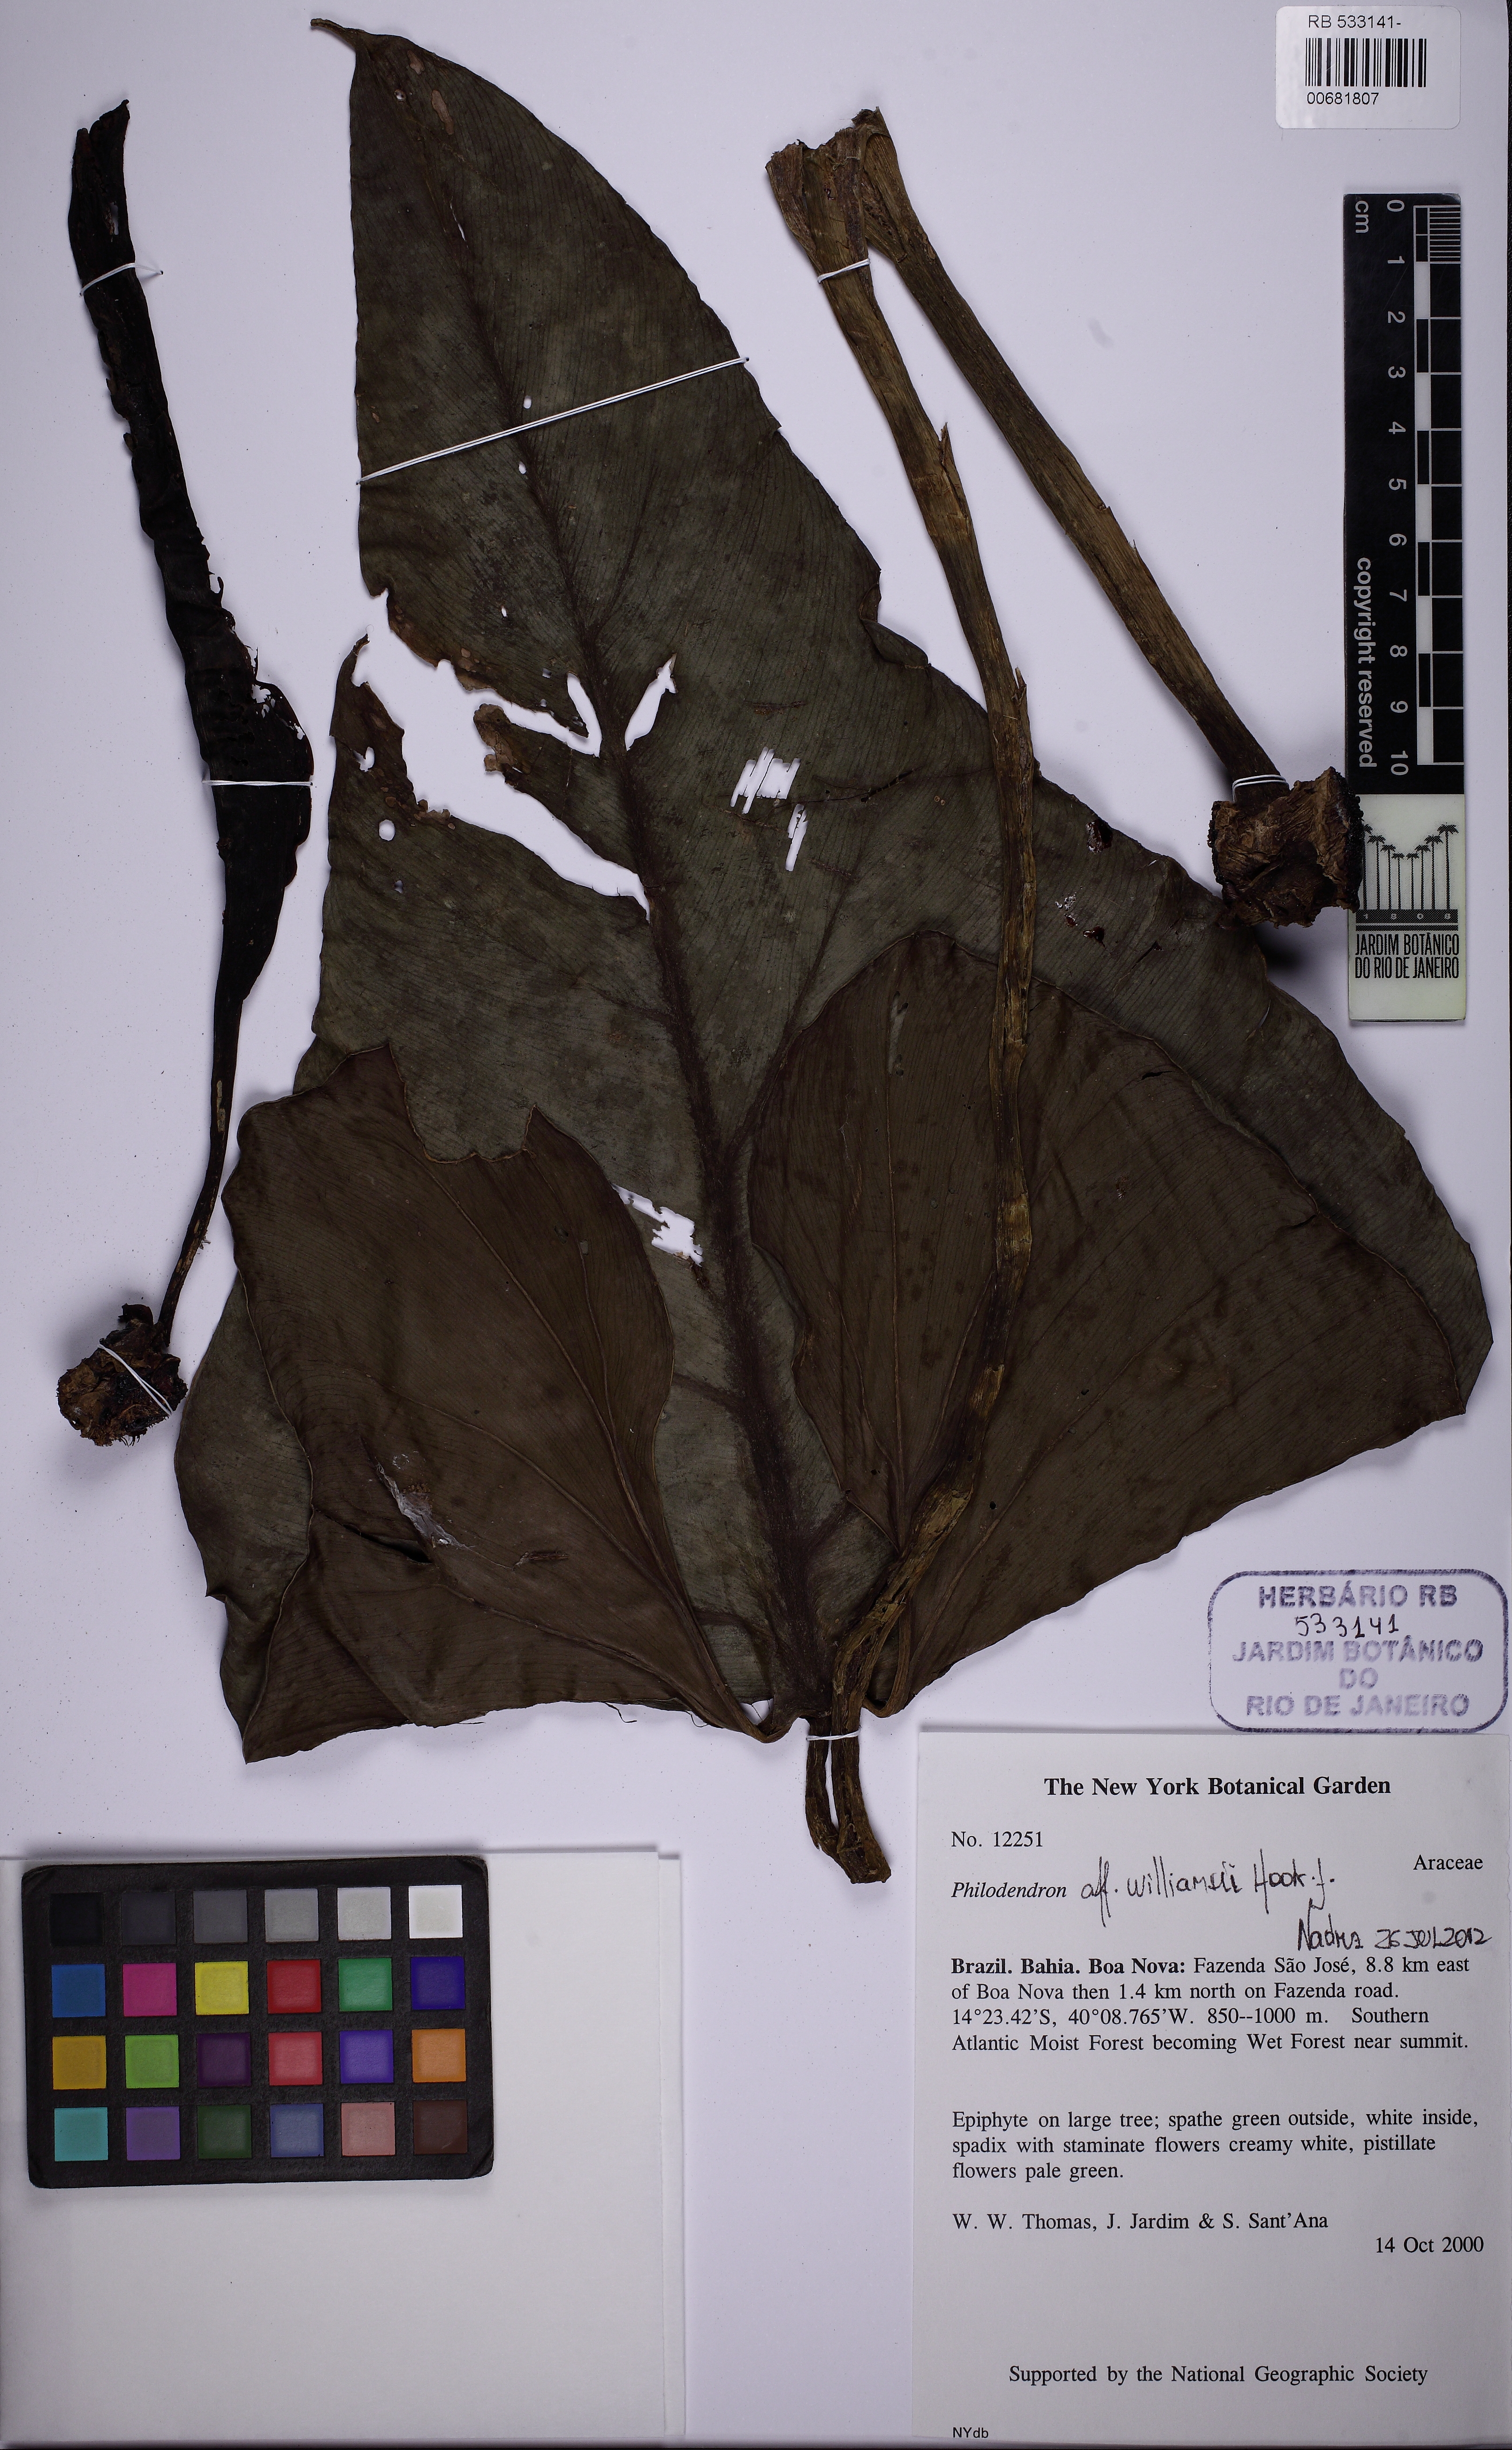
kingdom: Plantae
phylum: Tracheophyta
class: Liliopsida
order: Alismatales
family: Araceae
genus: Philodendron
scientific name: Philodendron
